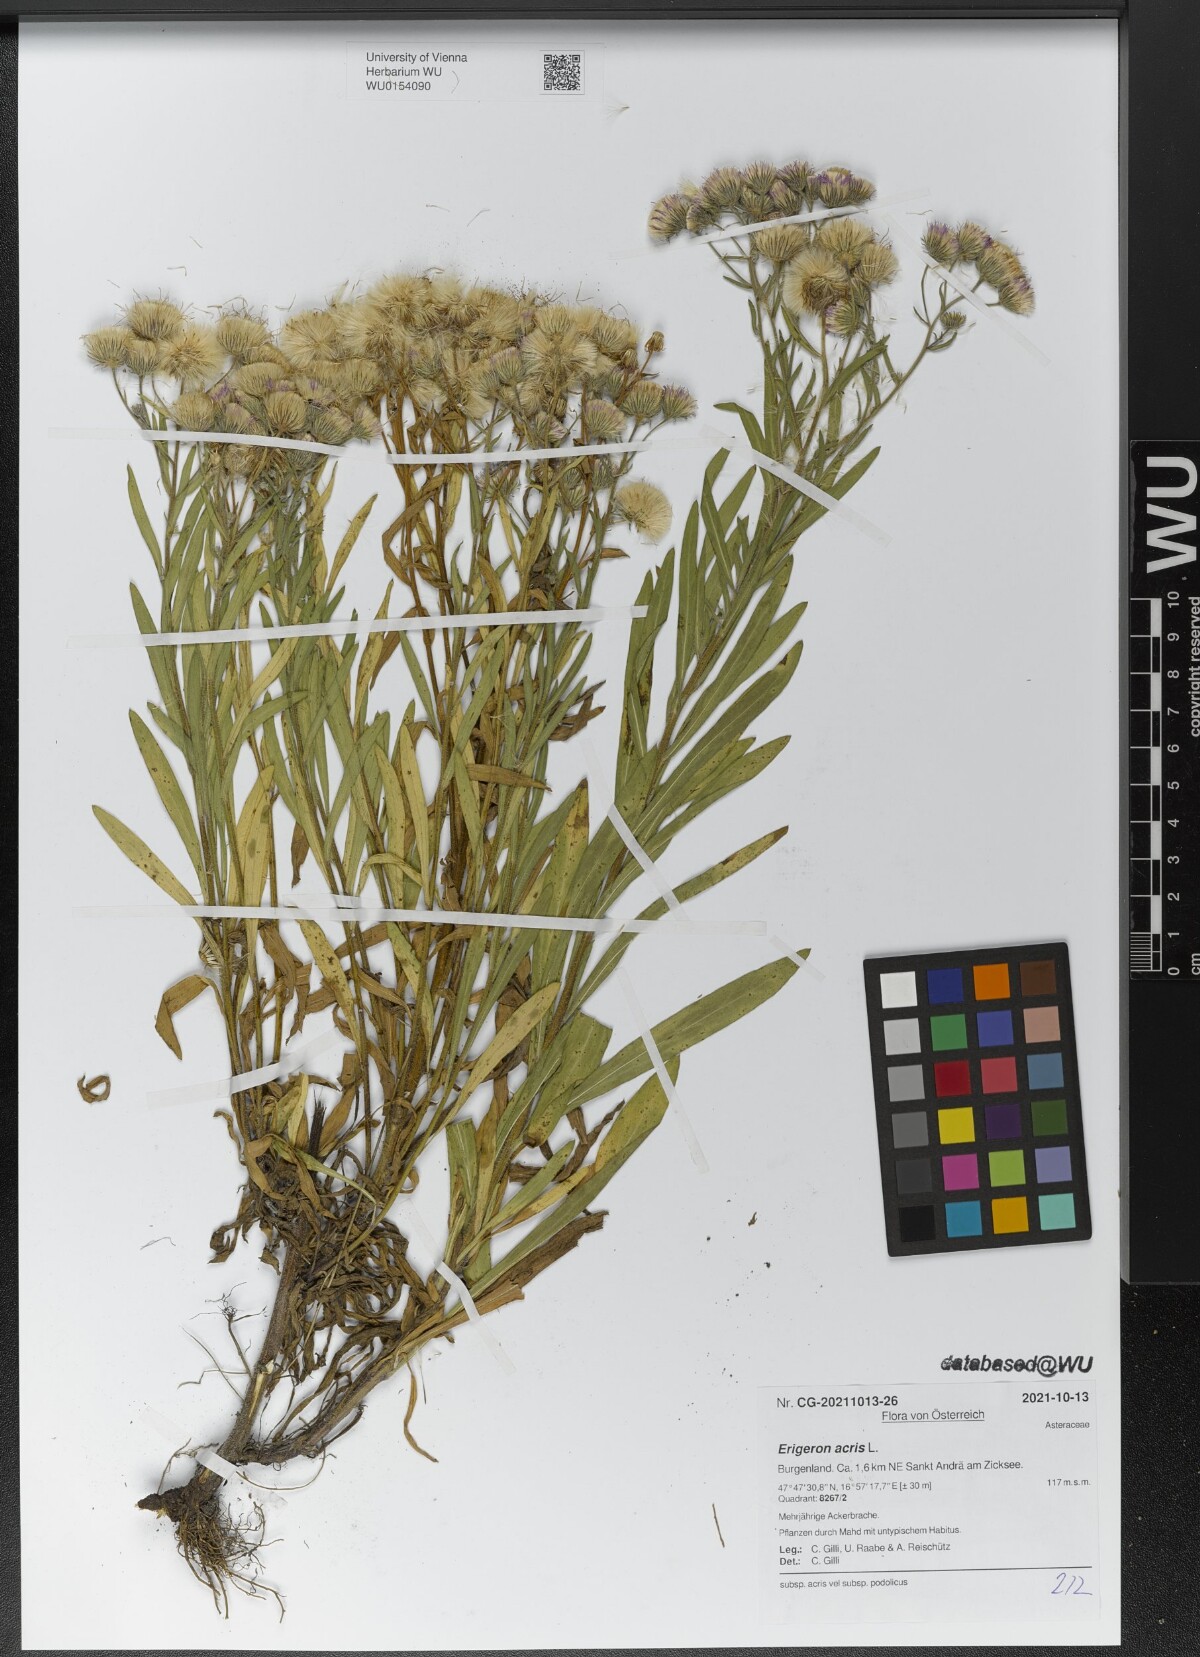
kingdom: Plantae
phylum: Tracheophyta
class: Magnoliopsida
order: Asterales
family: Asteraceae
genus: Erigeron
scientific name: Erigeron acris
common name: Blue fleabane
